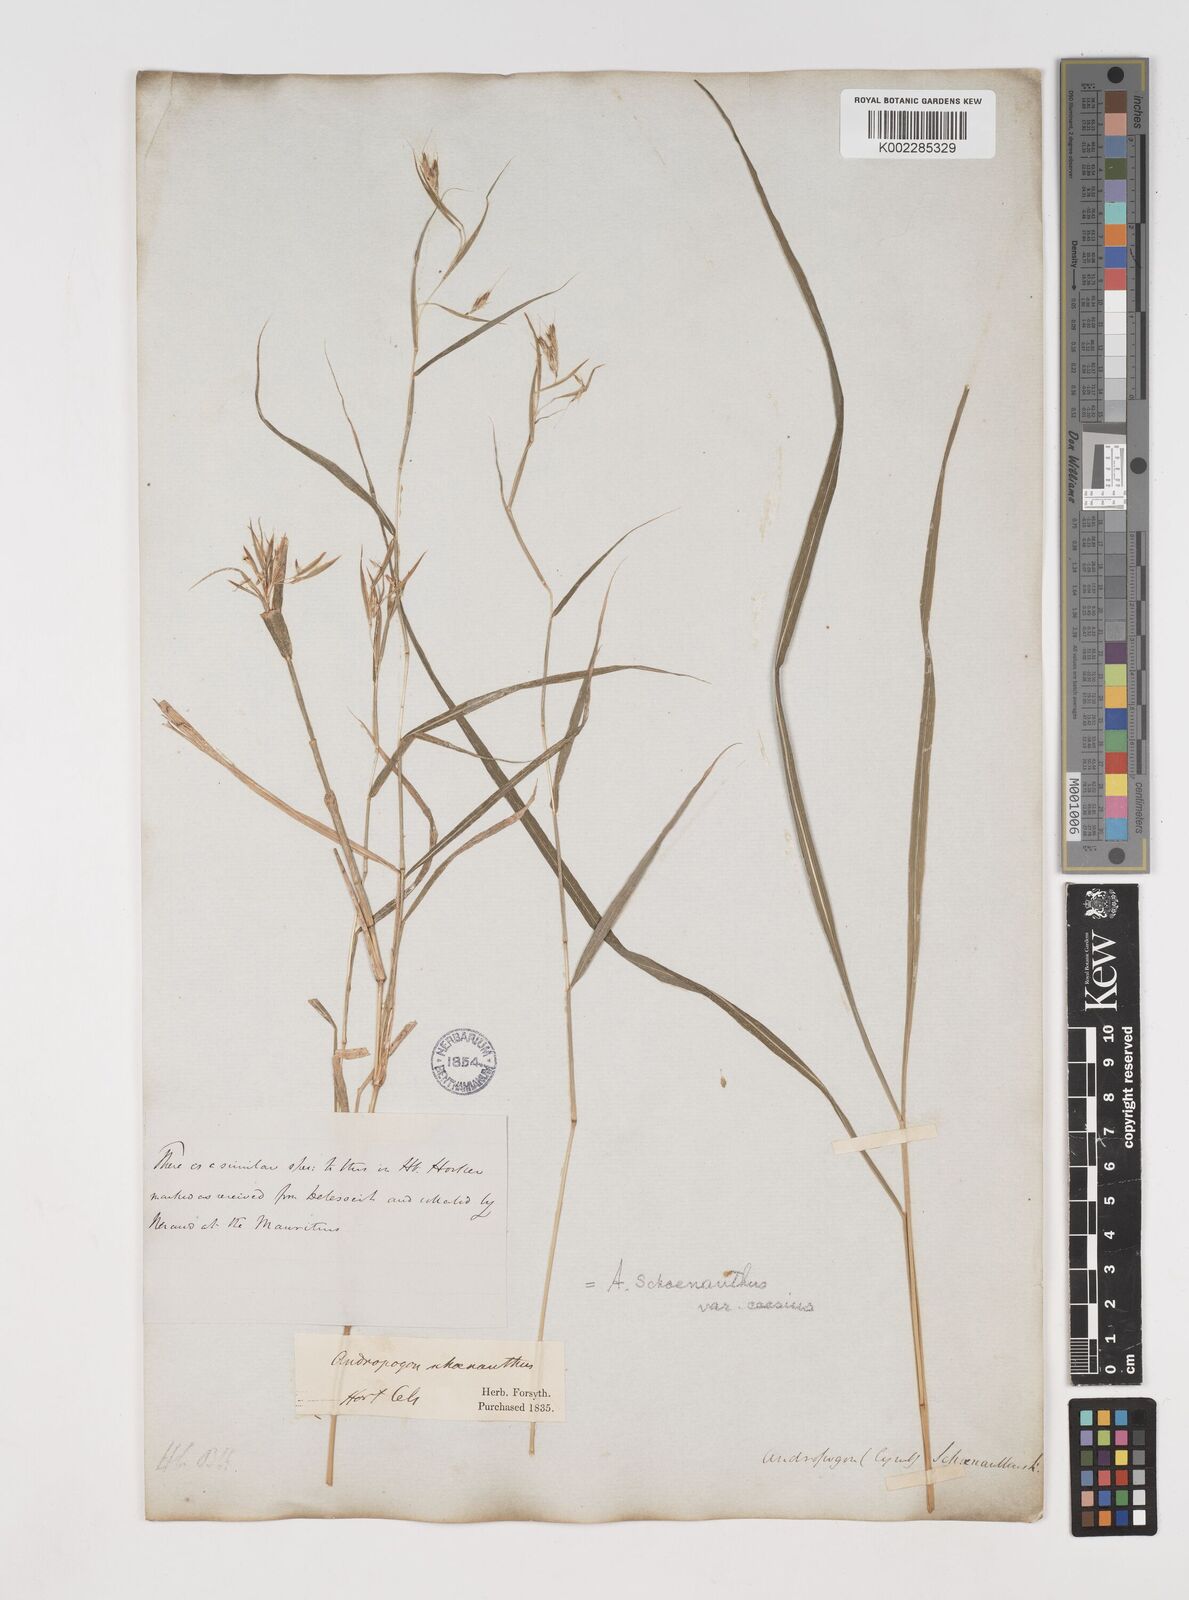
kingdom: Plantae
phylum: Tracheophyta
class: Liliopsida
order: Poales
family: Poaceae
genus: Cymbopogon
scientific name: Cymbopogon pruinosus
